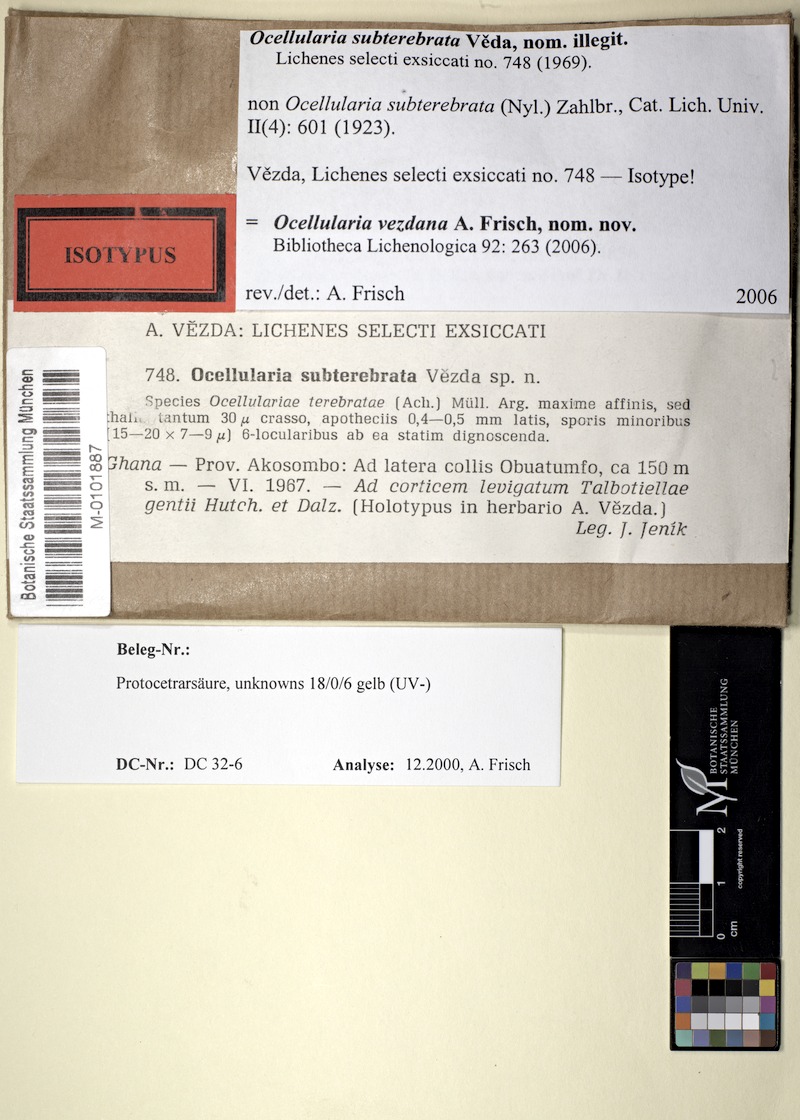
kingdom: Fungi
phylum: Ascomycota
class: Lecanoromycetes
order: Ostropales
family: Graphidaceae
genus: Ocellularia
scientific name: Ocellularia vezdana
